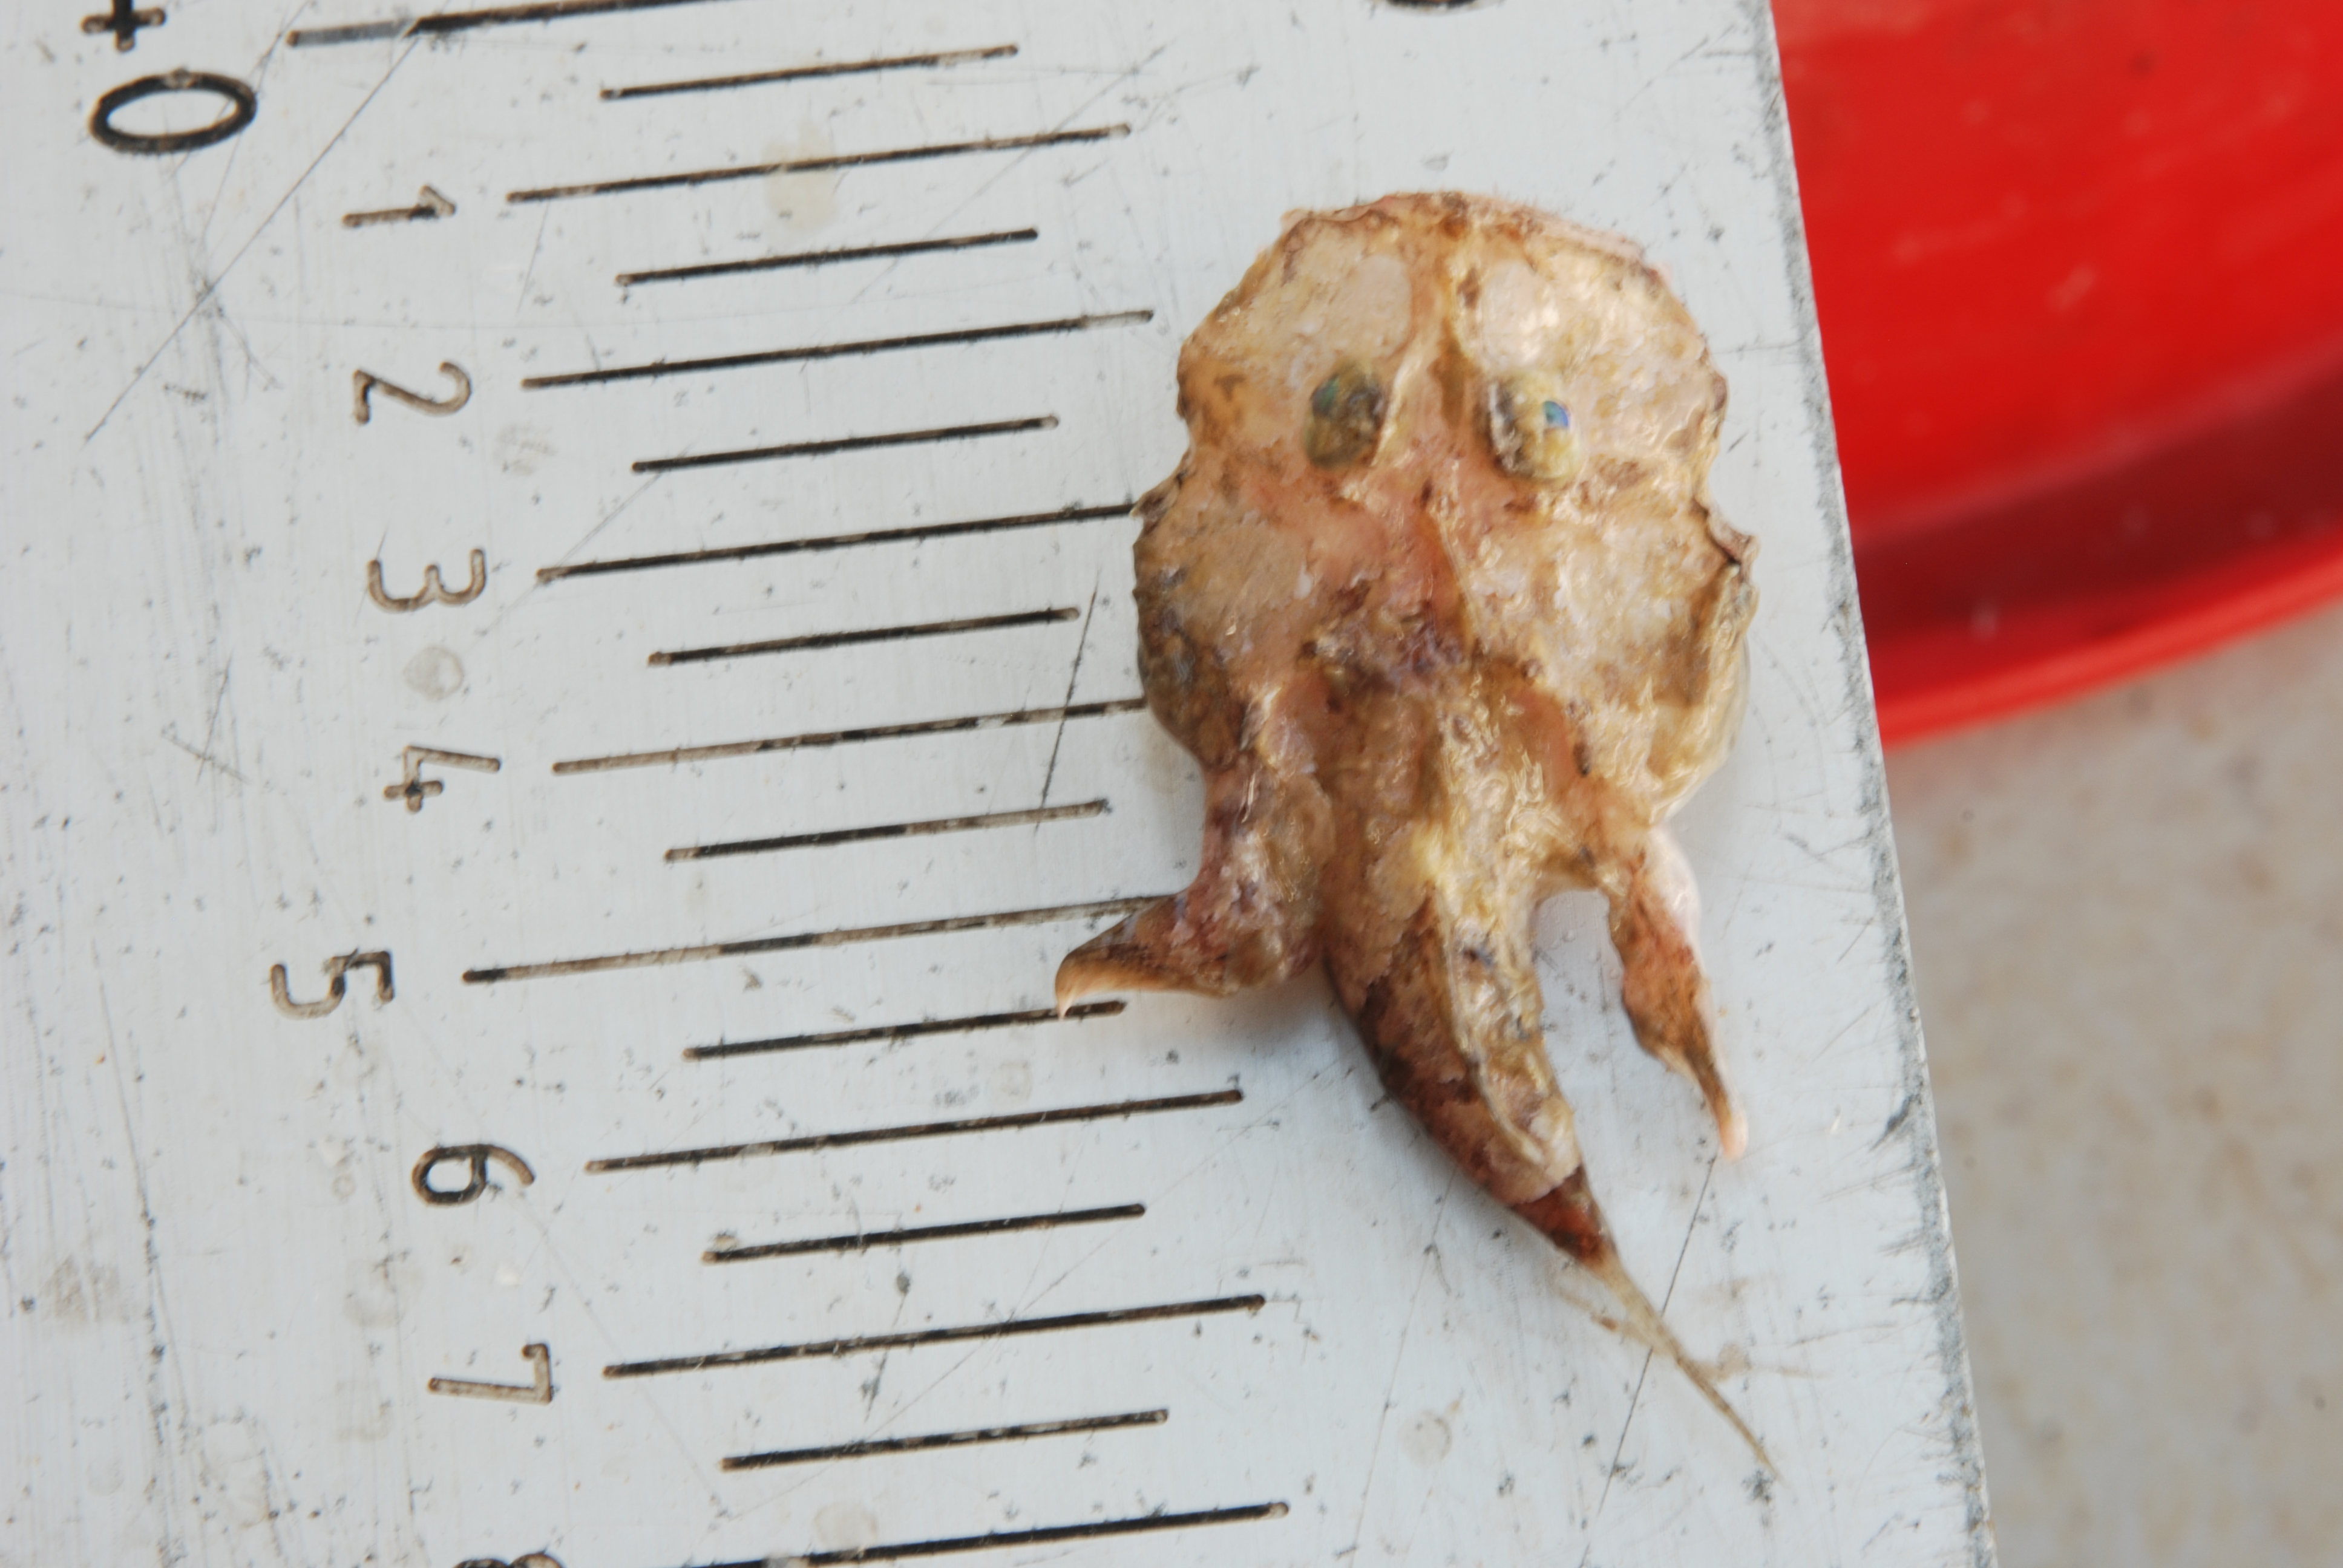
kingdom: Animalia
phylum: Chordata
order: Lophiiformes
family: Lophiidae
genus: Lophiodes
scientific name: Lophiodes insidiator
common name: Natal angler
